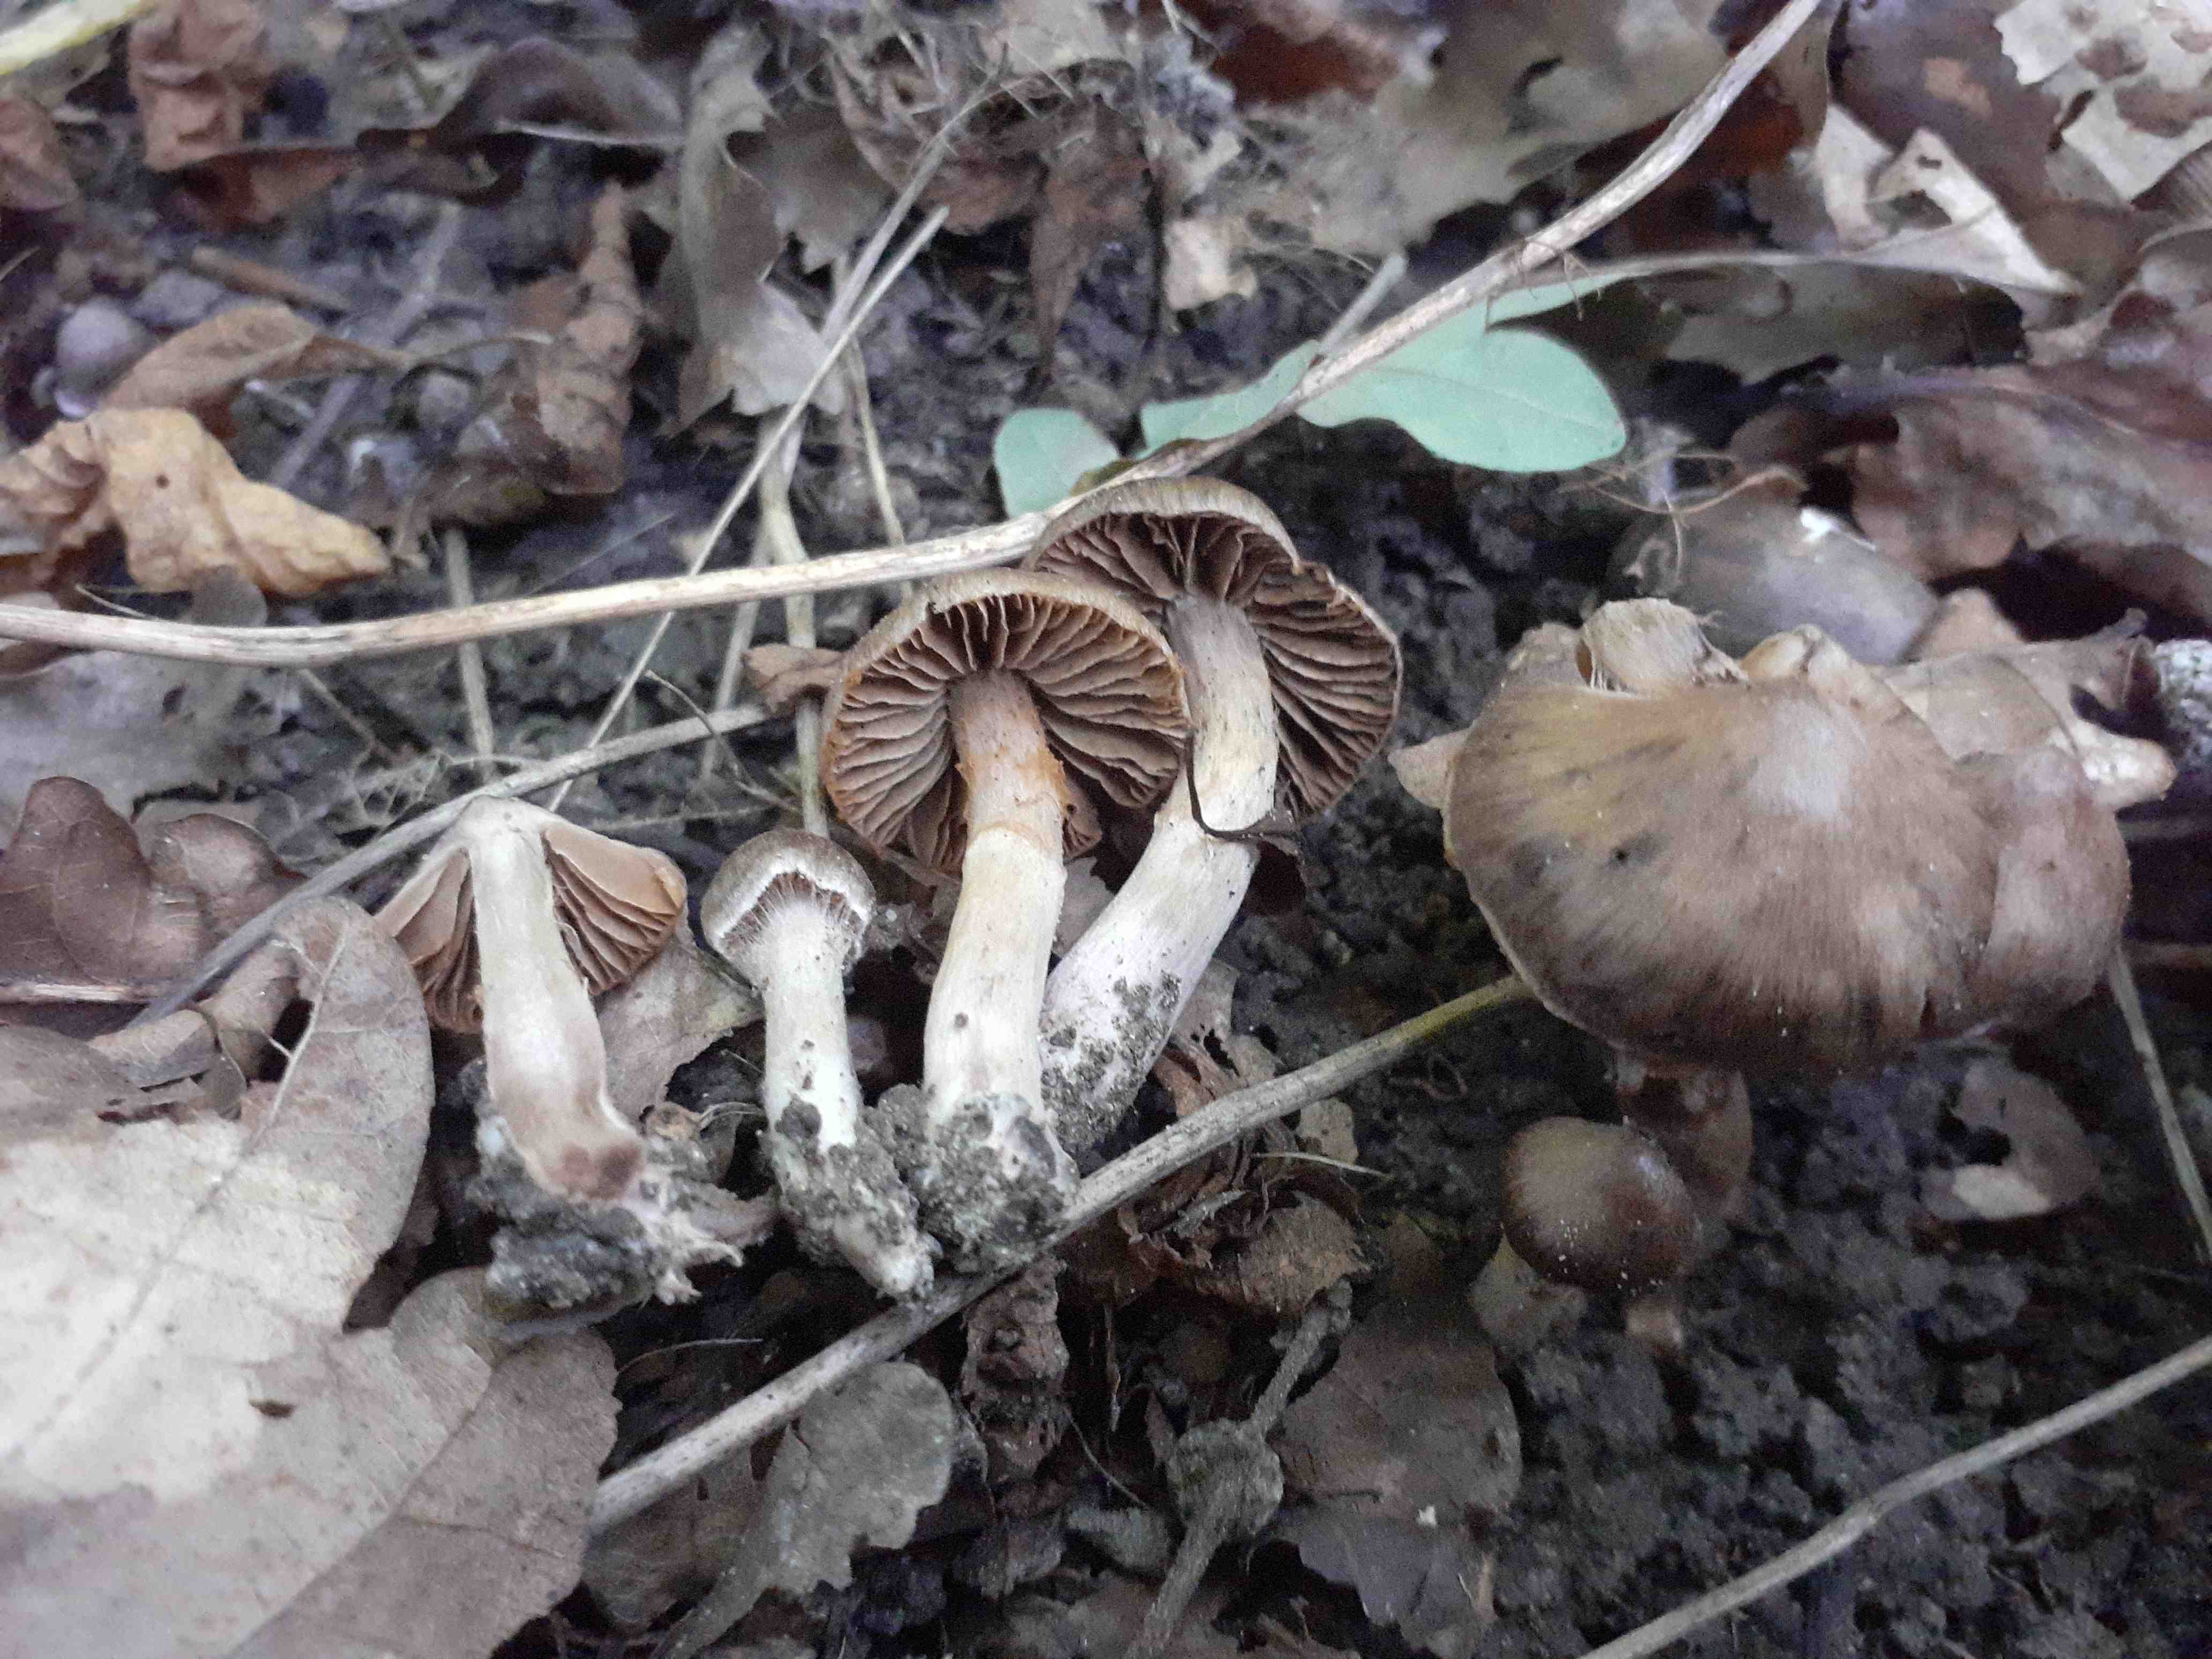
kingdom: Fungi
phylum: Basidiomycota
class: Agaricomycetes
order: Agaricales
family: Cortinariaceae
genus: Cortinarius
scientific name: Cortinarius caliginosus
